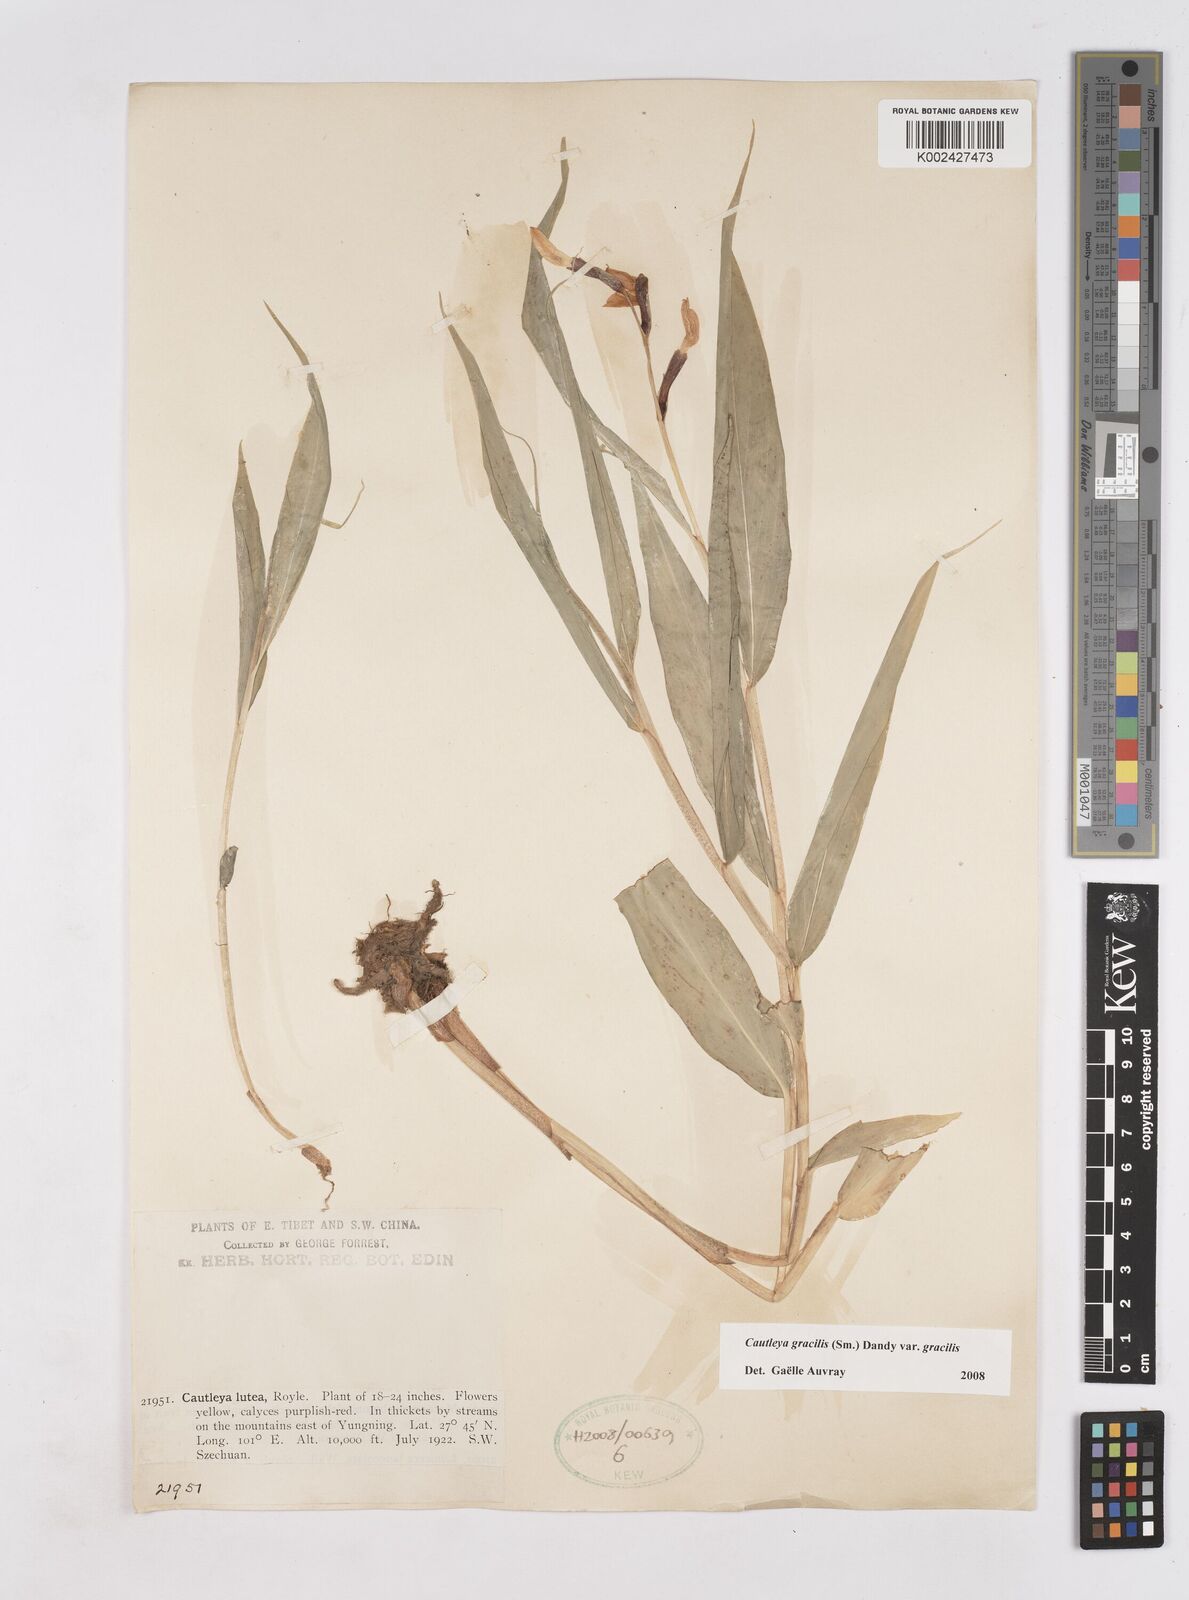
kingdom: Plantae
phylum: Tracheophyta
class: Liliopsida
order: Zingiberales
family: Zingiberaceae
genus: Cautleya
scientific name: Cautleya gracilis
